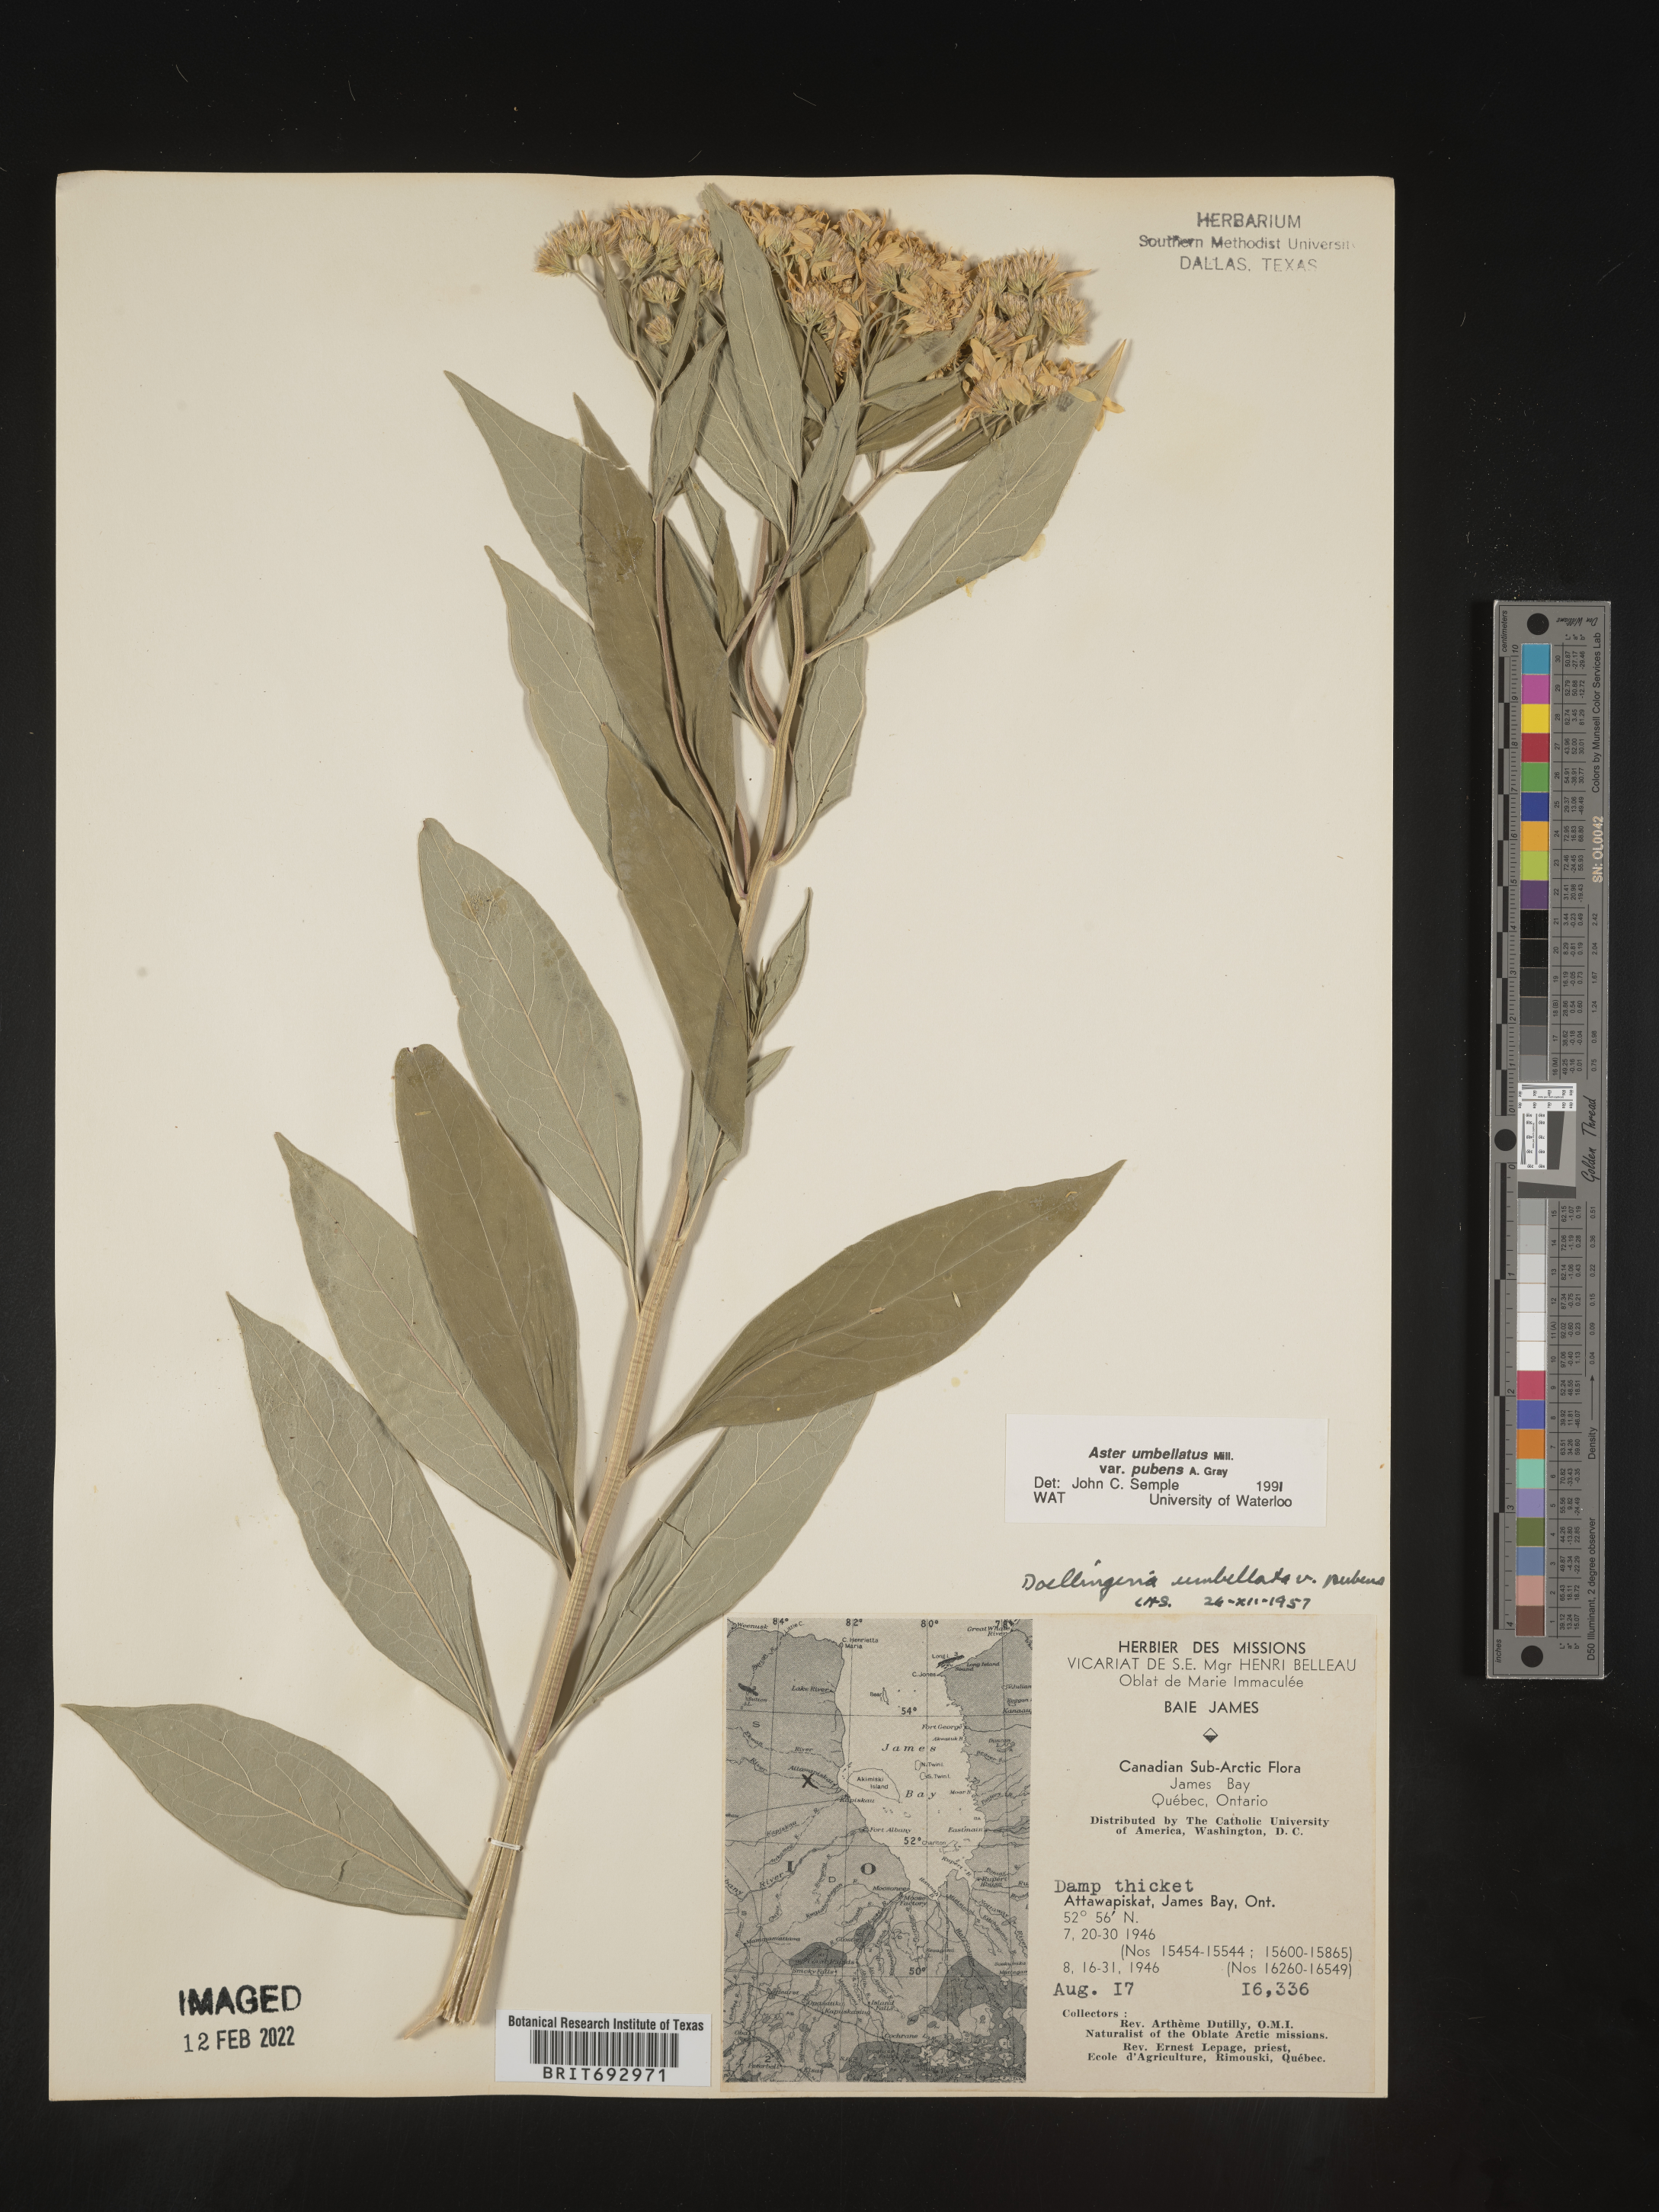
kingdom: Plantae
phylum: Tracheophyta
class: Magnoliopsida
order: Asterales
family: Asteraceae
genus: Doellingeria
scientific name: Doellingeria umbellata
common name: Flat-top white aster
